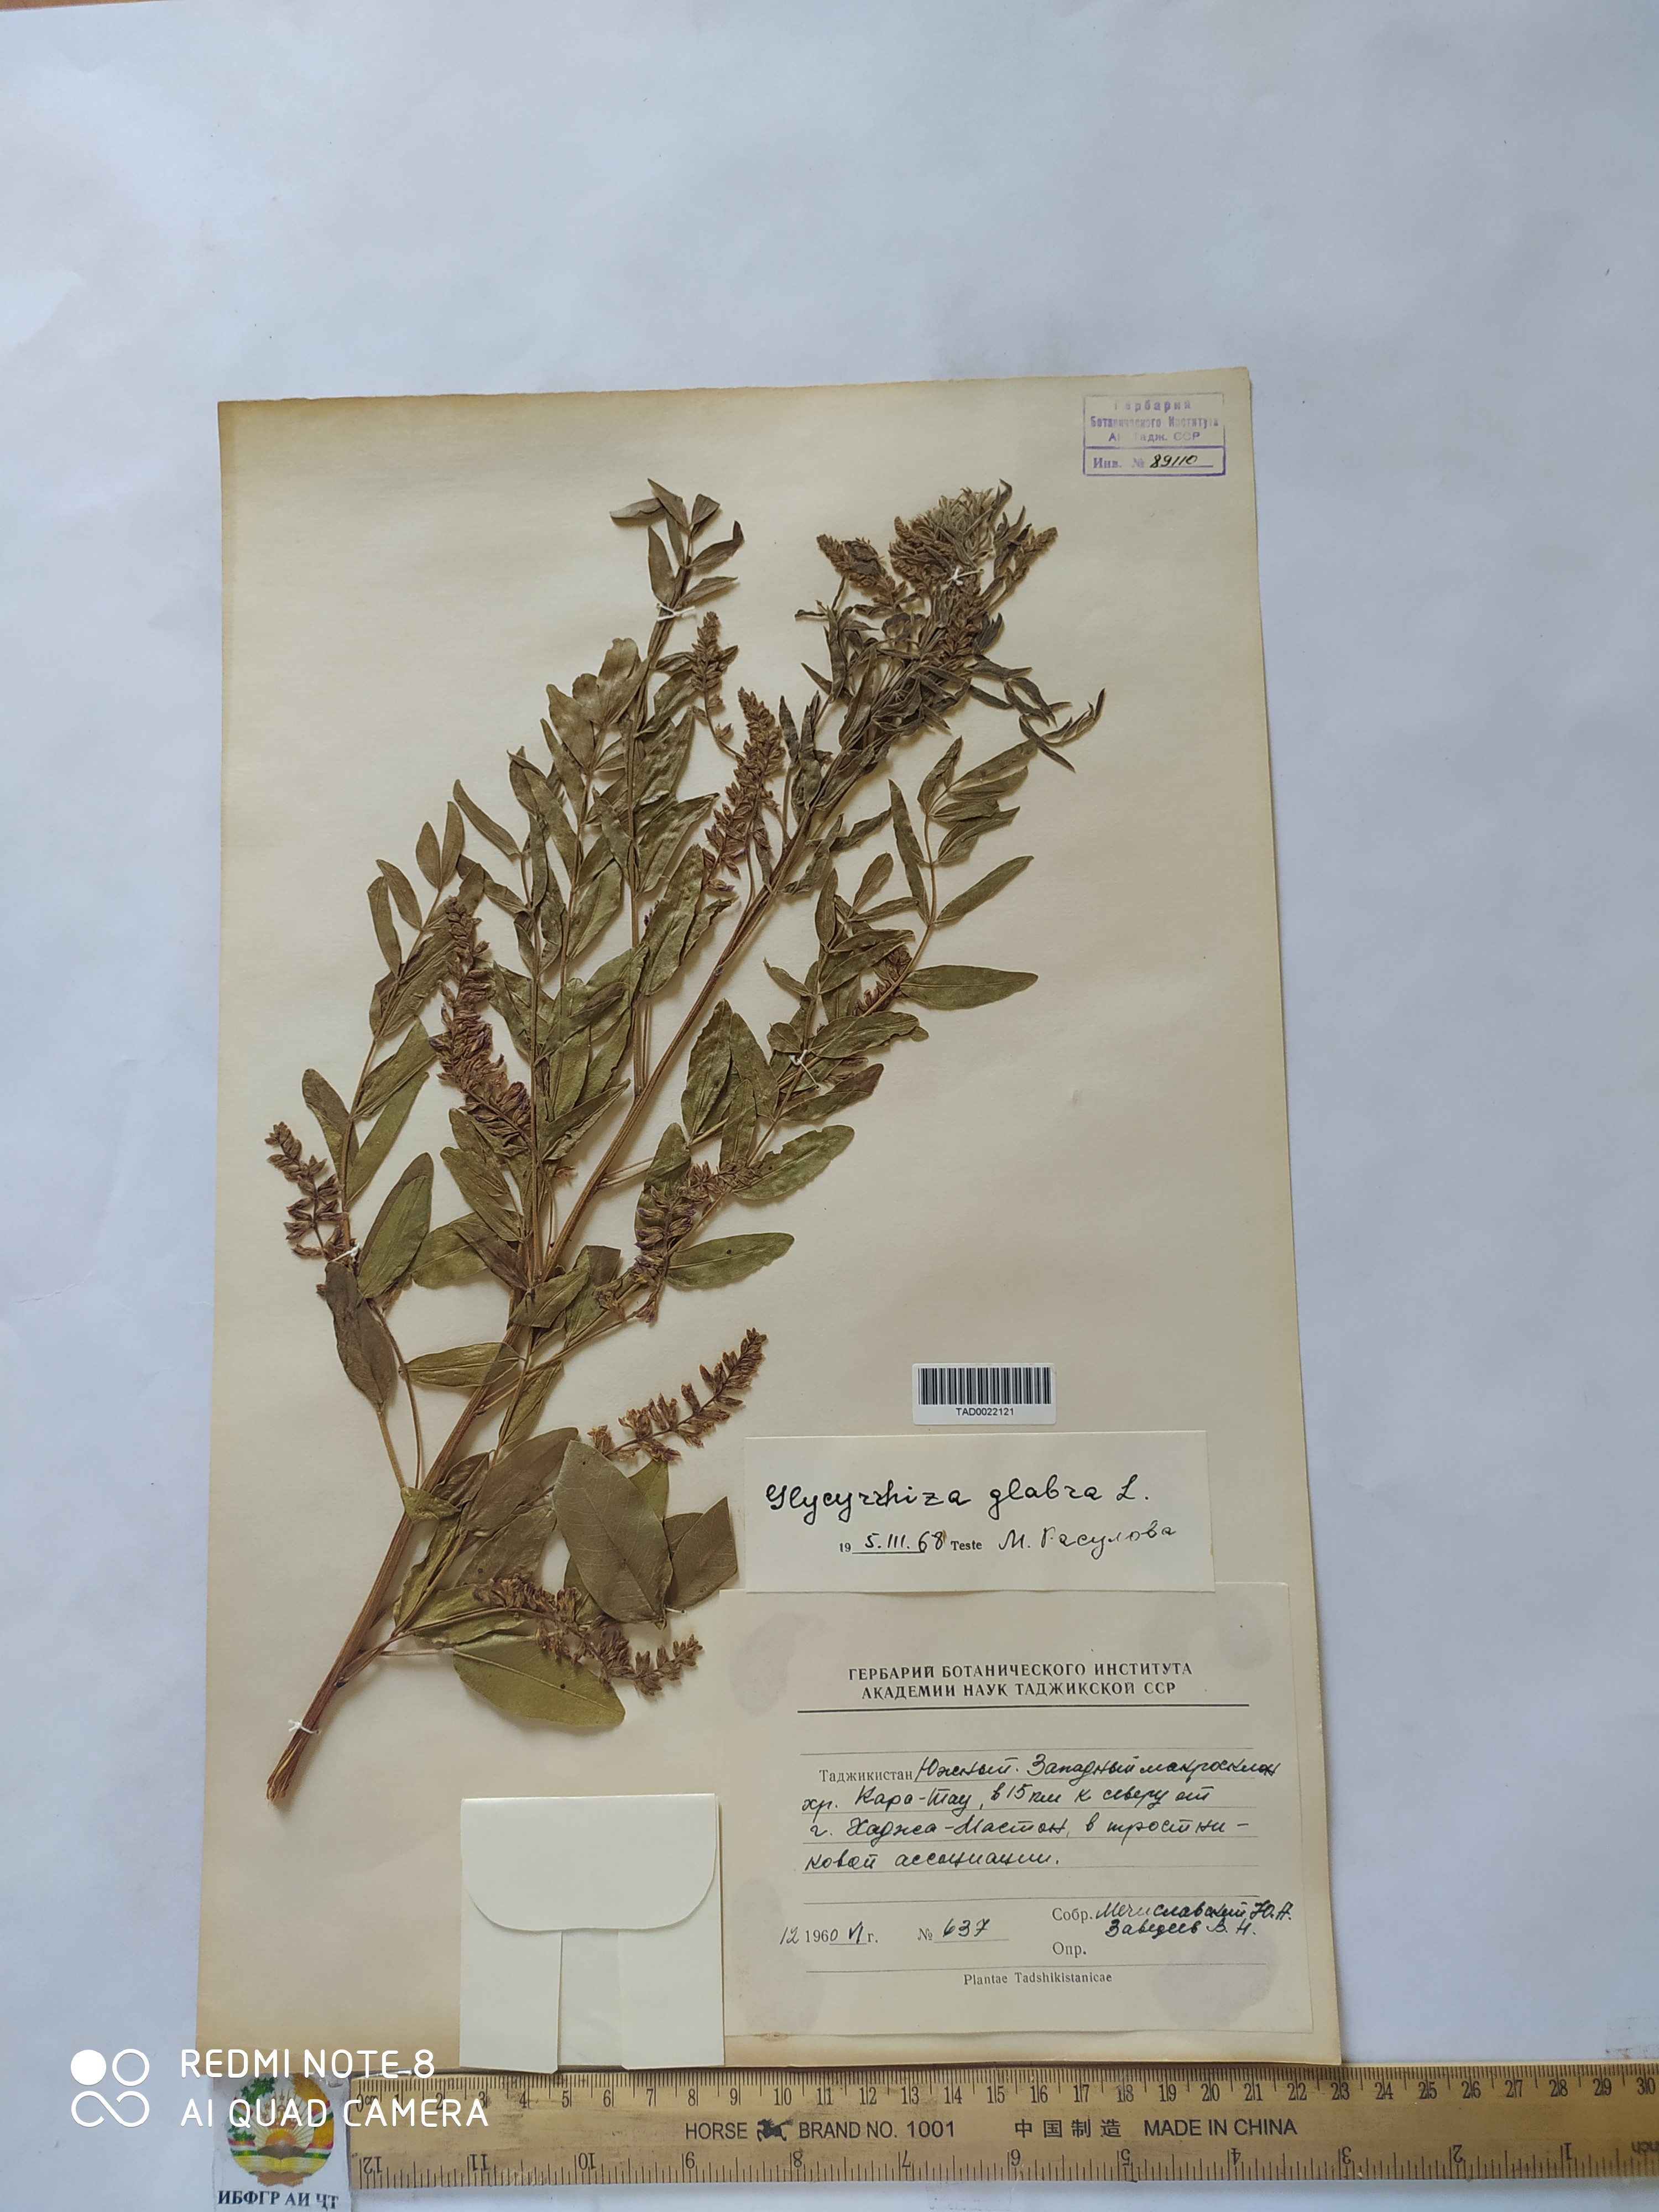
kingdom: Plantae
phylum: Tracheophyta
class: Magnoliopsida
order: Fabales
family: Fabaceae
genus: Glycyrrhiza
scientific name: Glycyrrhiza glabra
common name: Liquorice
